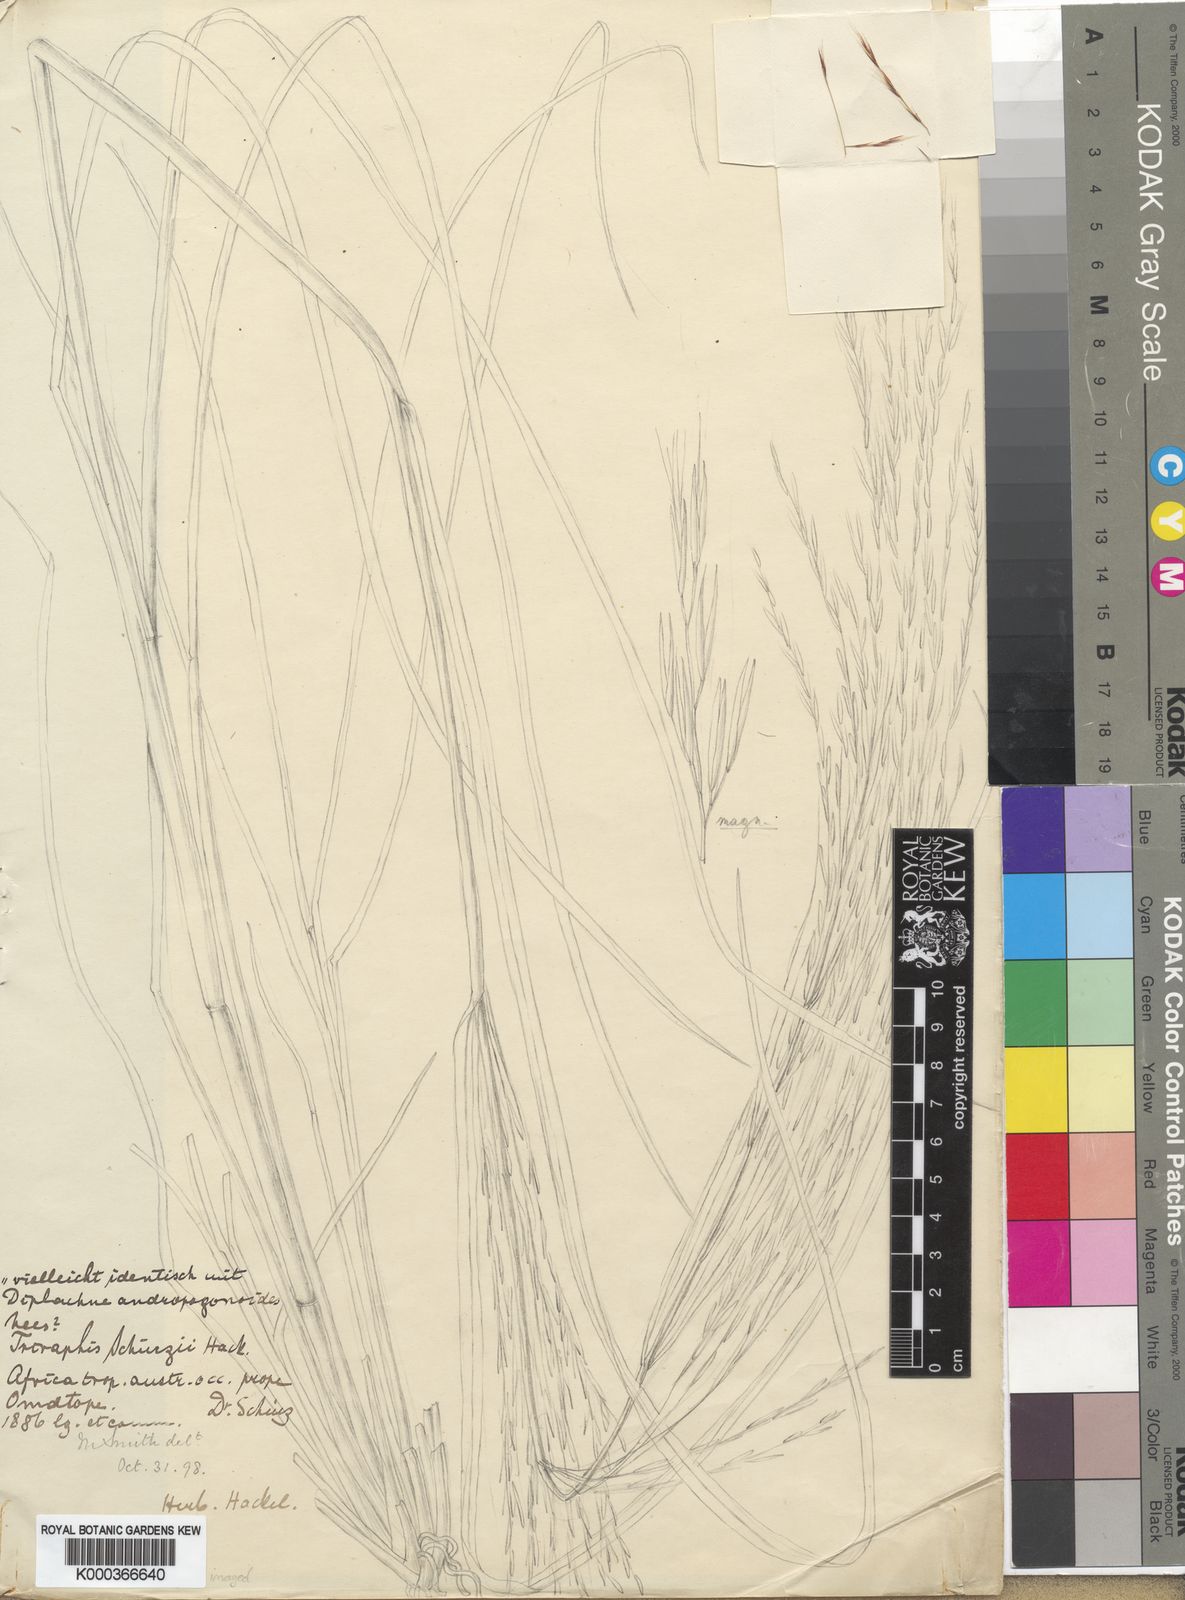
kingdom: Plantae
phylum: Tracheophyta
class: Liliopsida
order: Poales
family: Poaceae
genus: Triraphis
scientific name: Triraphis
